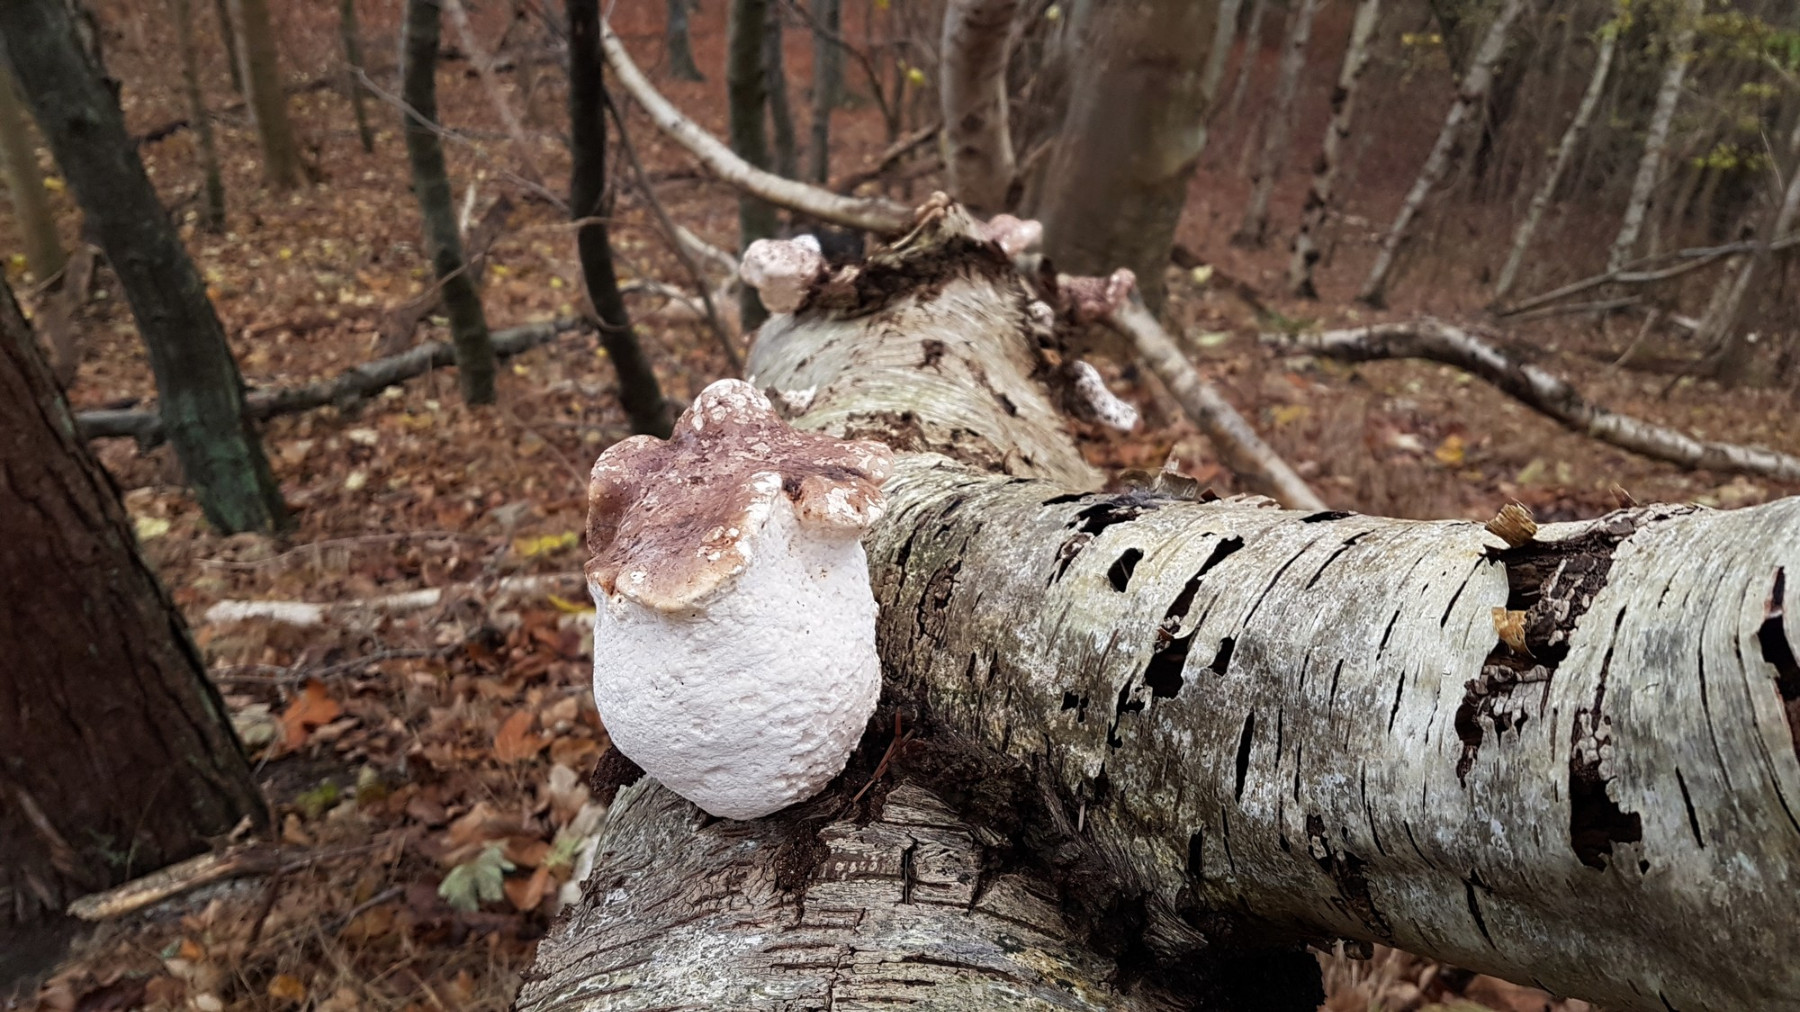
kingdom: Fungi
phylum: Basidiomycota
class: Agaricomycetes
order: Polyporales
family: Fomitopsidaceae
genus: Fomitopsis
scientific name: Fomitopsis betulina
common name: birkeporesvamp
